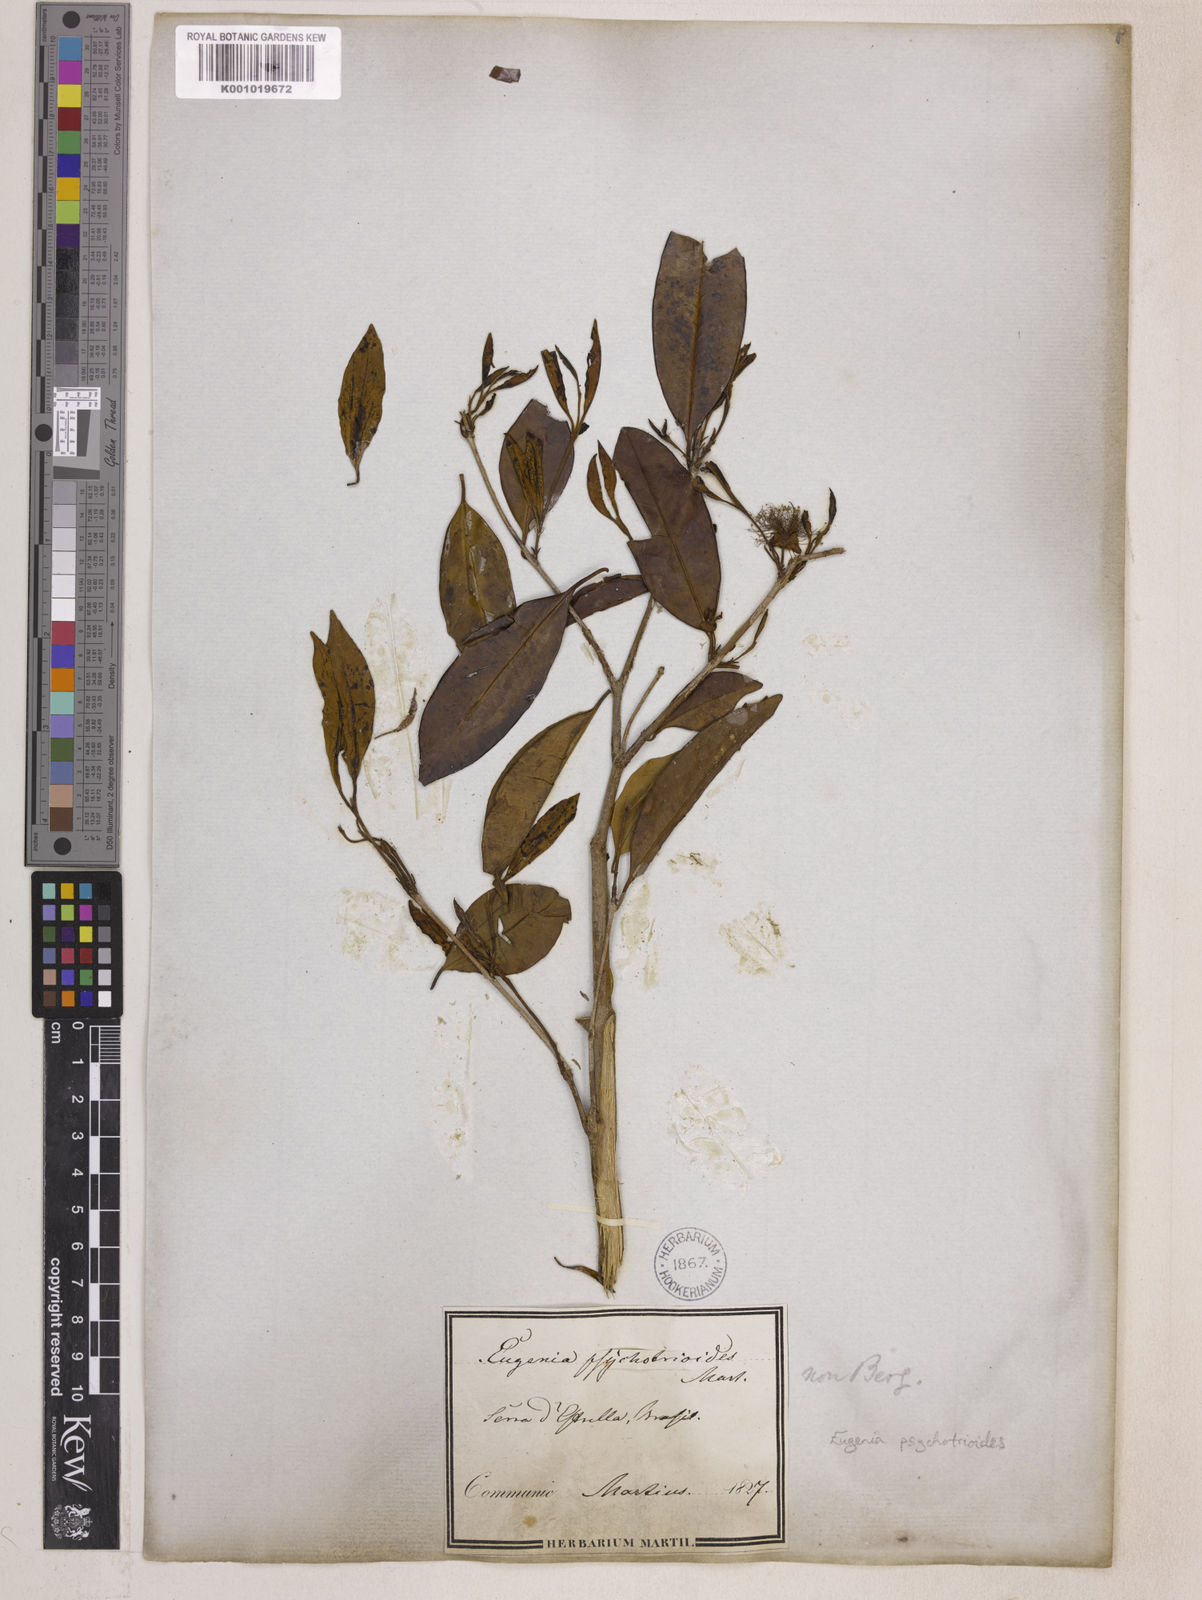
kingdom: Plantae
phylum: Tracheophyta
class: Magnoliopsida
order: Myrtales
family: Myrtaceae
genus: Eugenia
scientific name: Eugenia punicifolia
